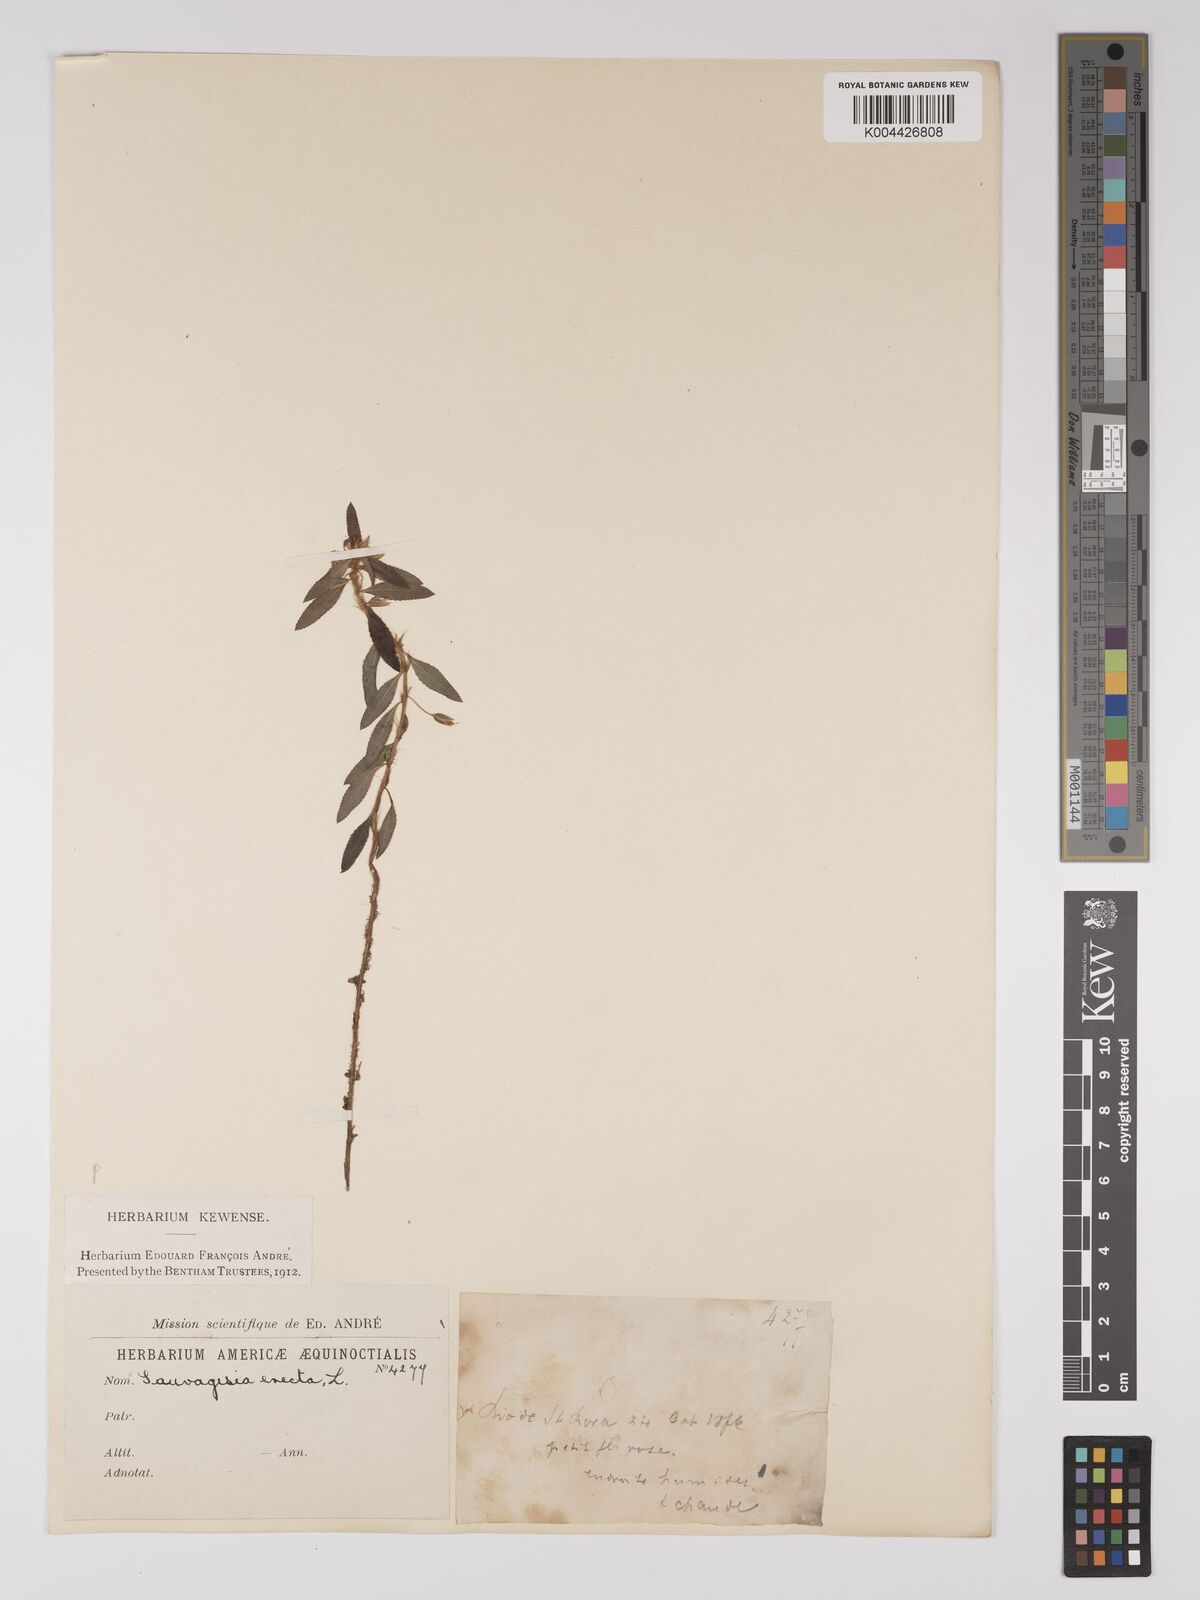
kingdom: Plantae
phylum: Tracheophyta
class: Magnoliopsida
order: Malpighiales
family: Ochnaceae
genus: Sauvagesia
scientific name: Sauvagesia erecta
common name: Creole tea
